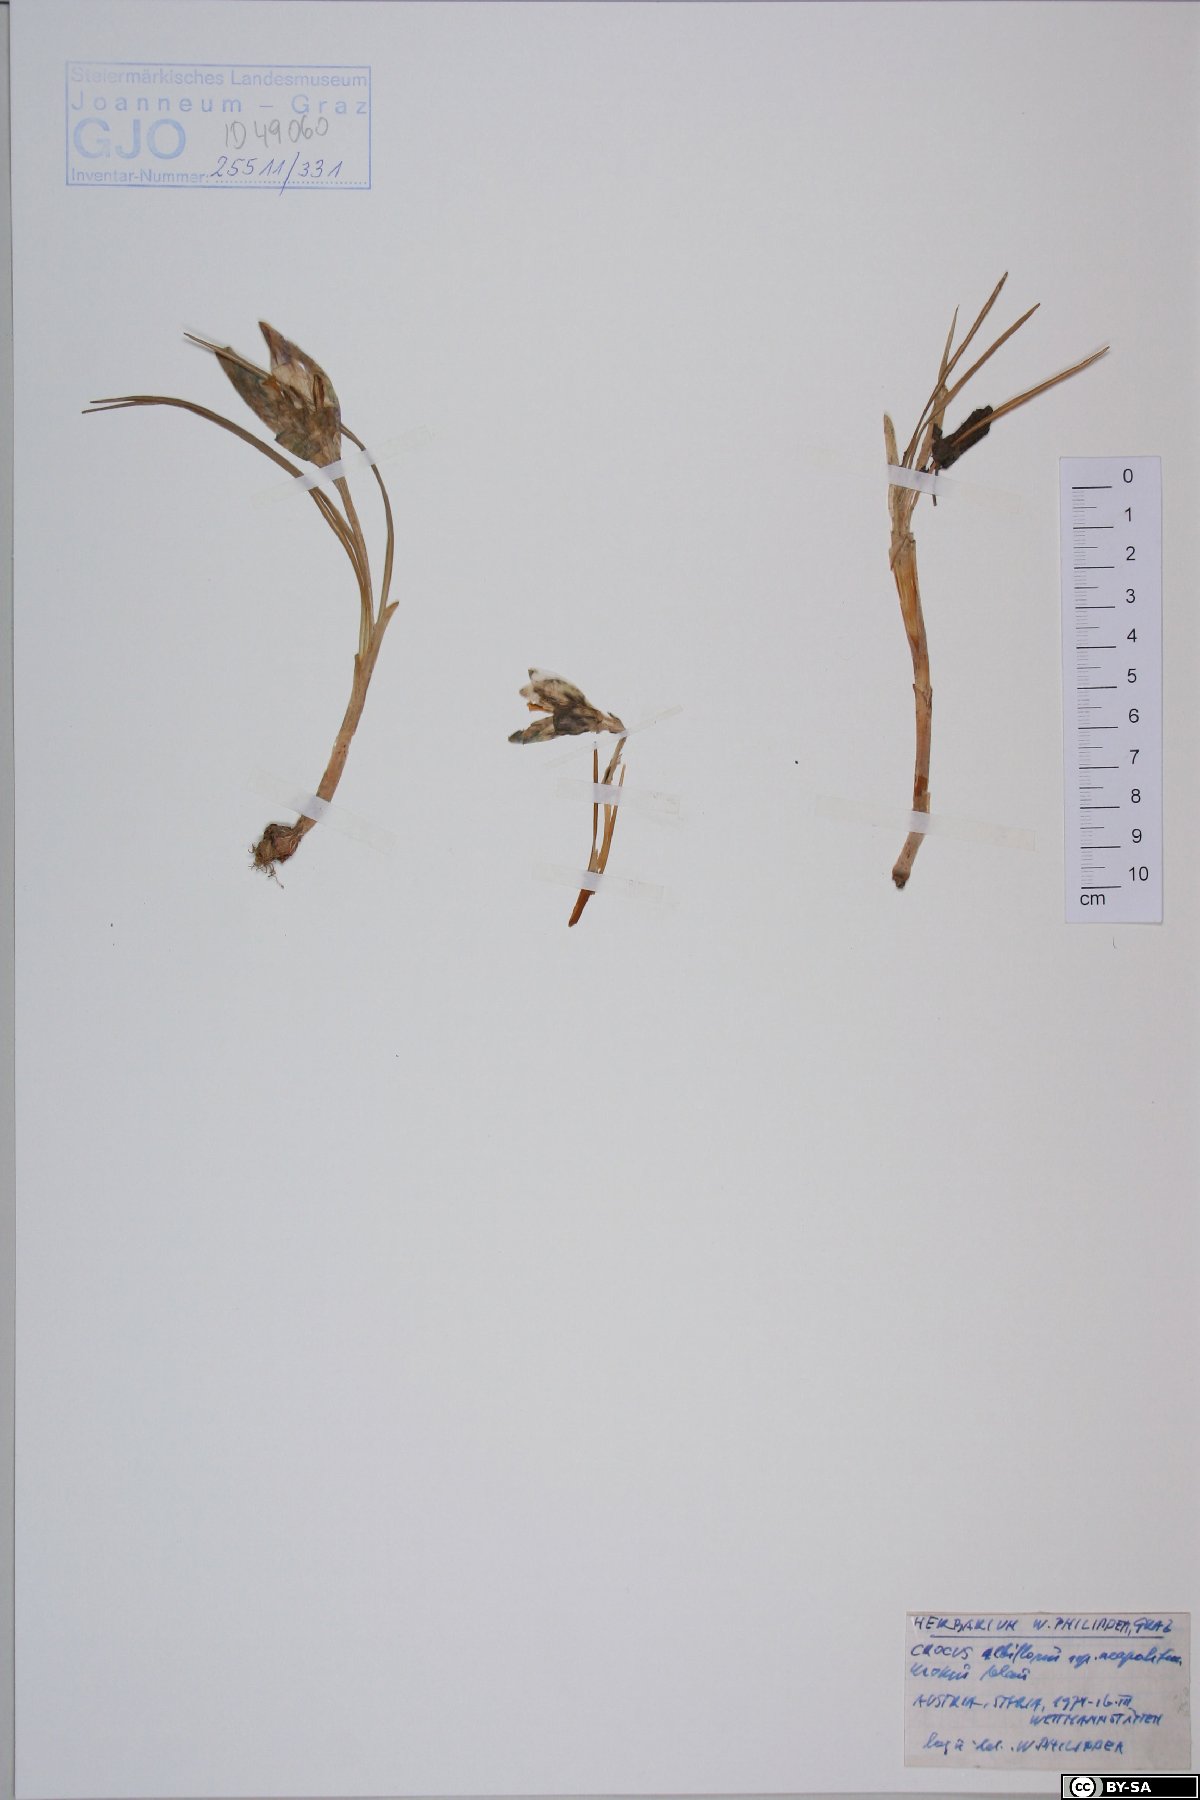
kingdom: Plantae
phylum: Tracheophyta
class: Liliopsida
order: Asparagales
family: Iridaceae
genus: Crocus
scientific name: Crocus neapolitanus
